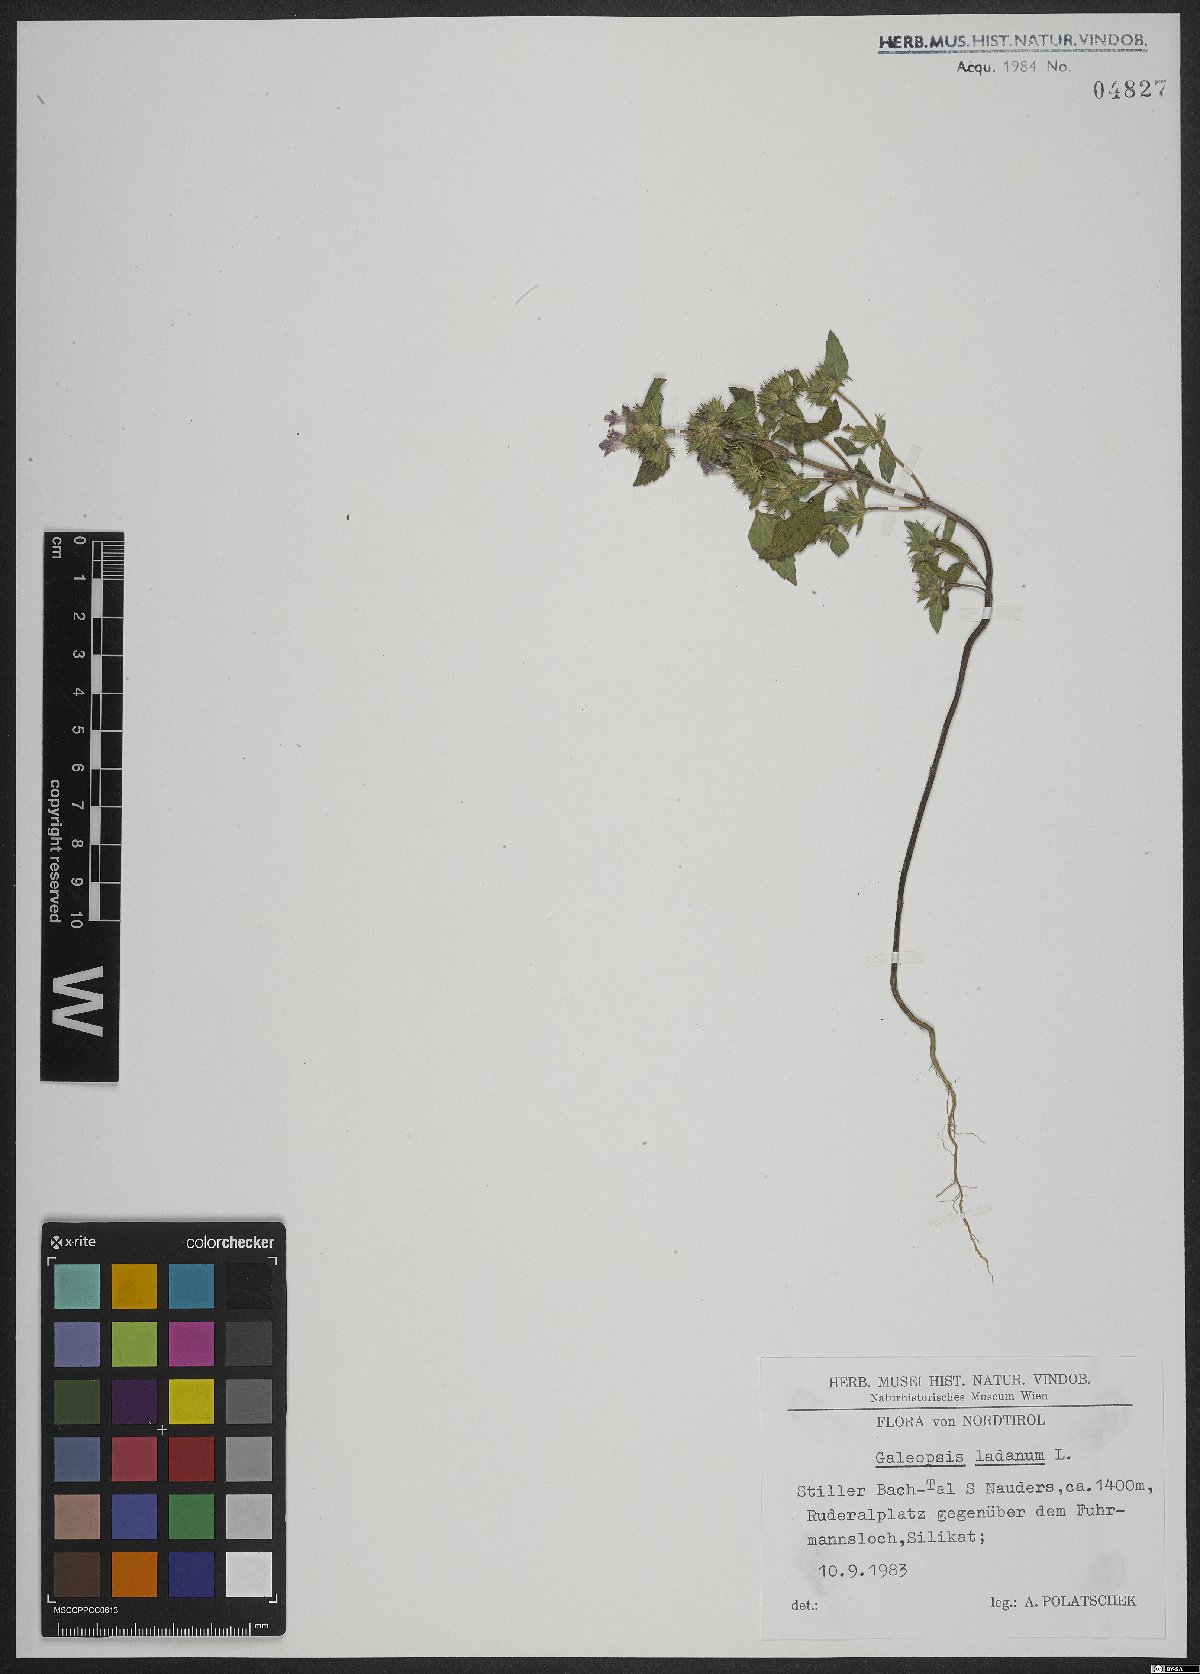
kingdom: Plantae
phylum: Tracheophyta
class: Magnoliopsida
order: Lamiales
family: Lamiaceae
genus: Galeopsis
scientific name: Galeopsis ladanum
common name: Broad-leaved hemp-nettle
